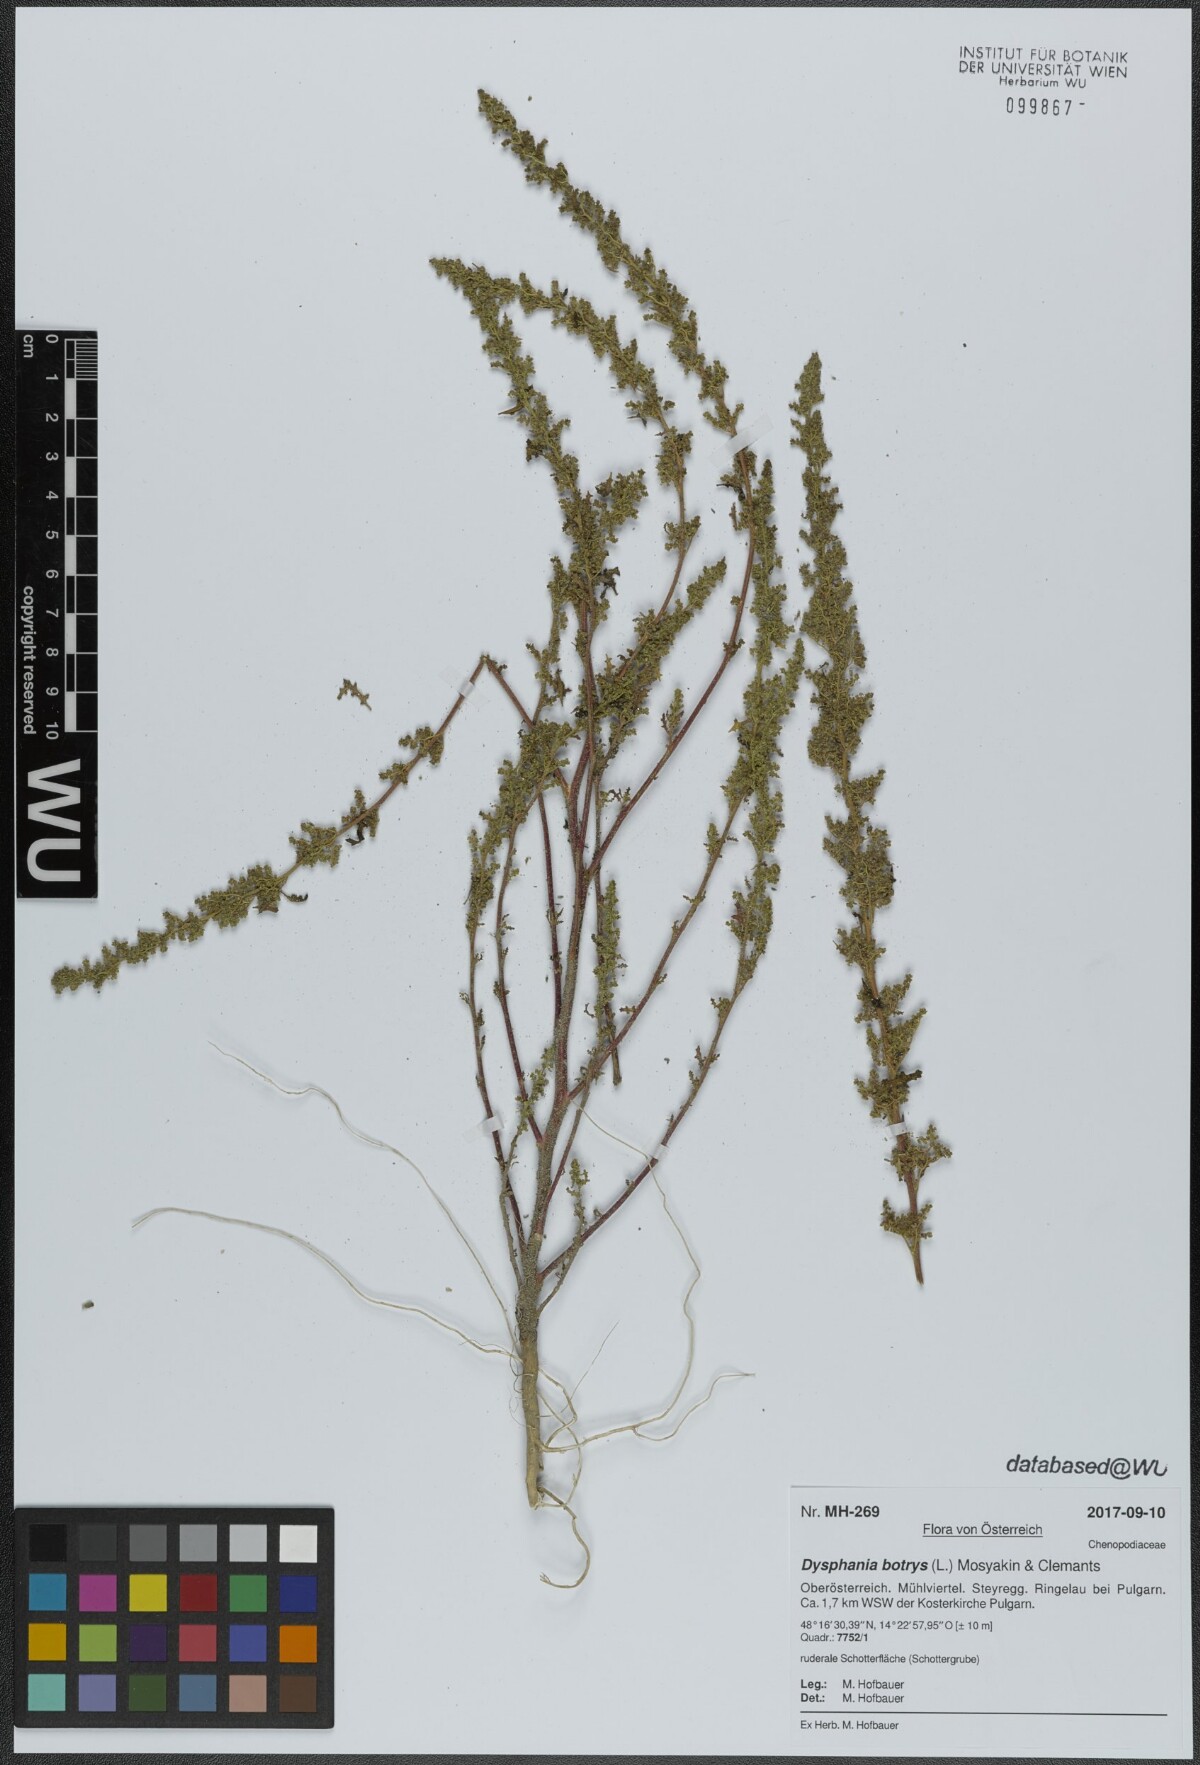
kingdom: Plantae
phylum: Tracheophyta
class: Magnoliopsida
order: Caryophyllales
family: Amaranthaceae
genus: Dysphania
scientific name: Dysphania botrys
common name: Feather-geranium
